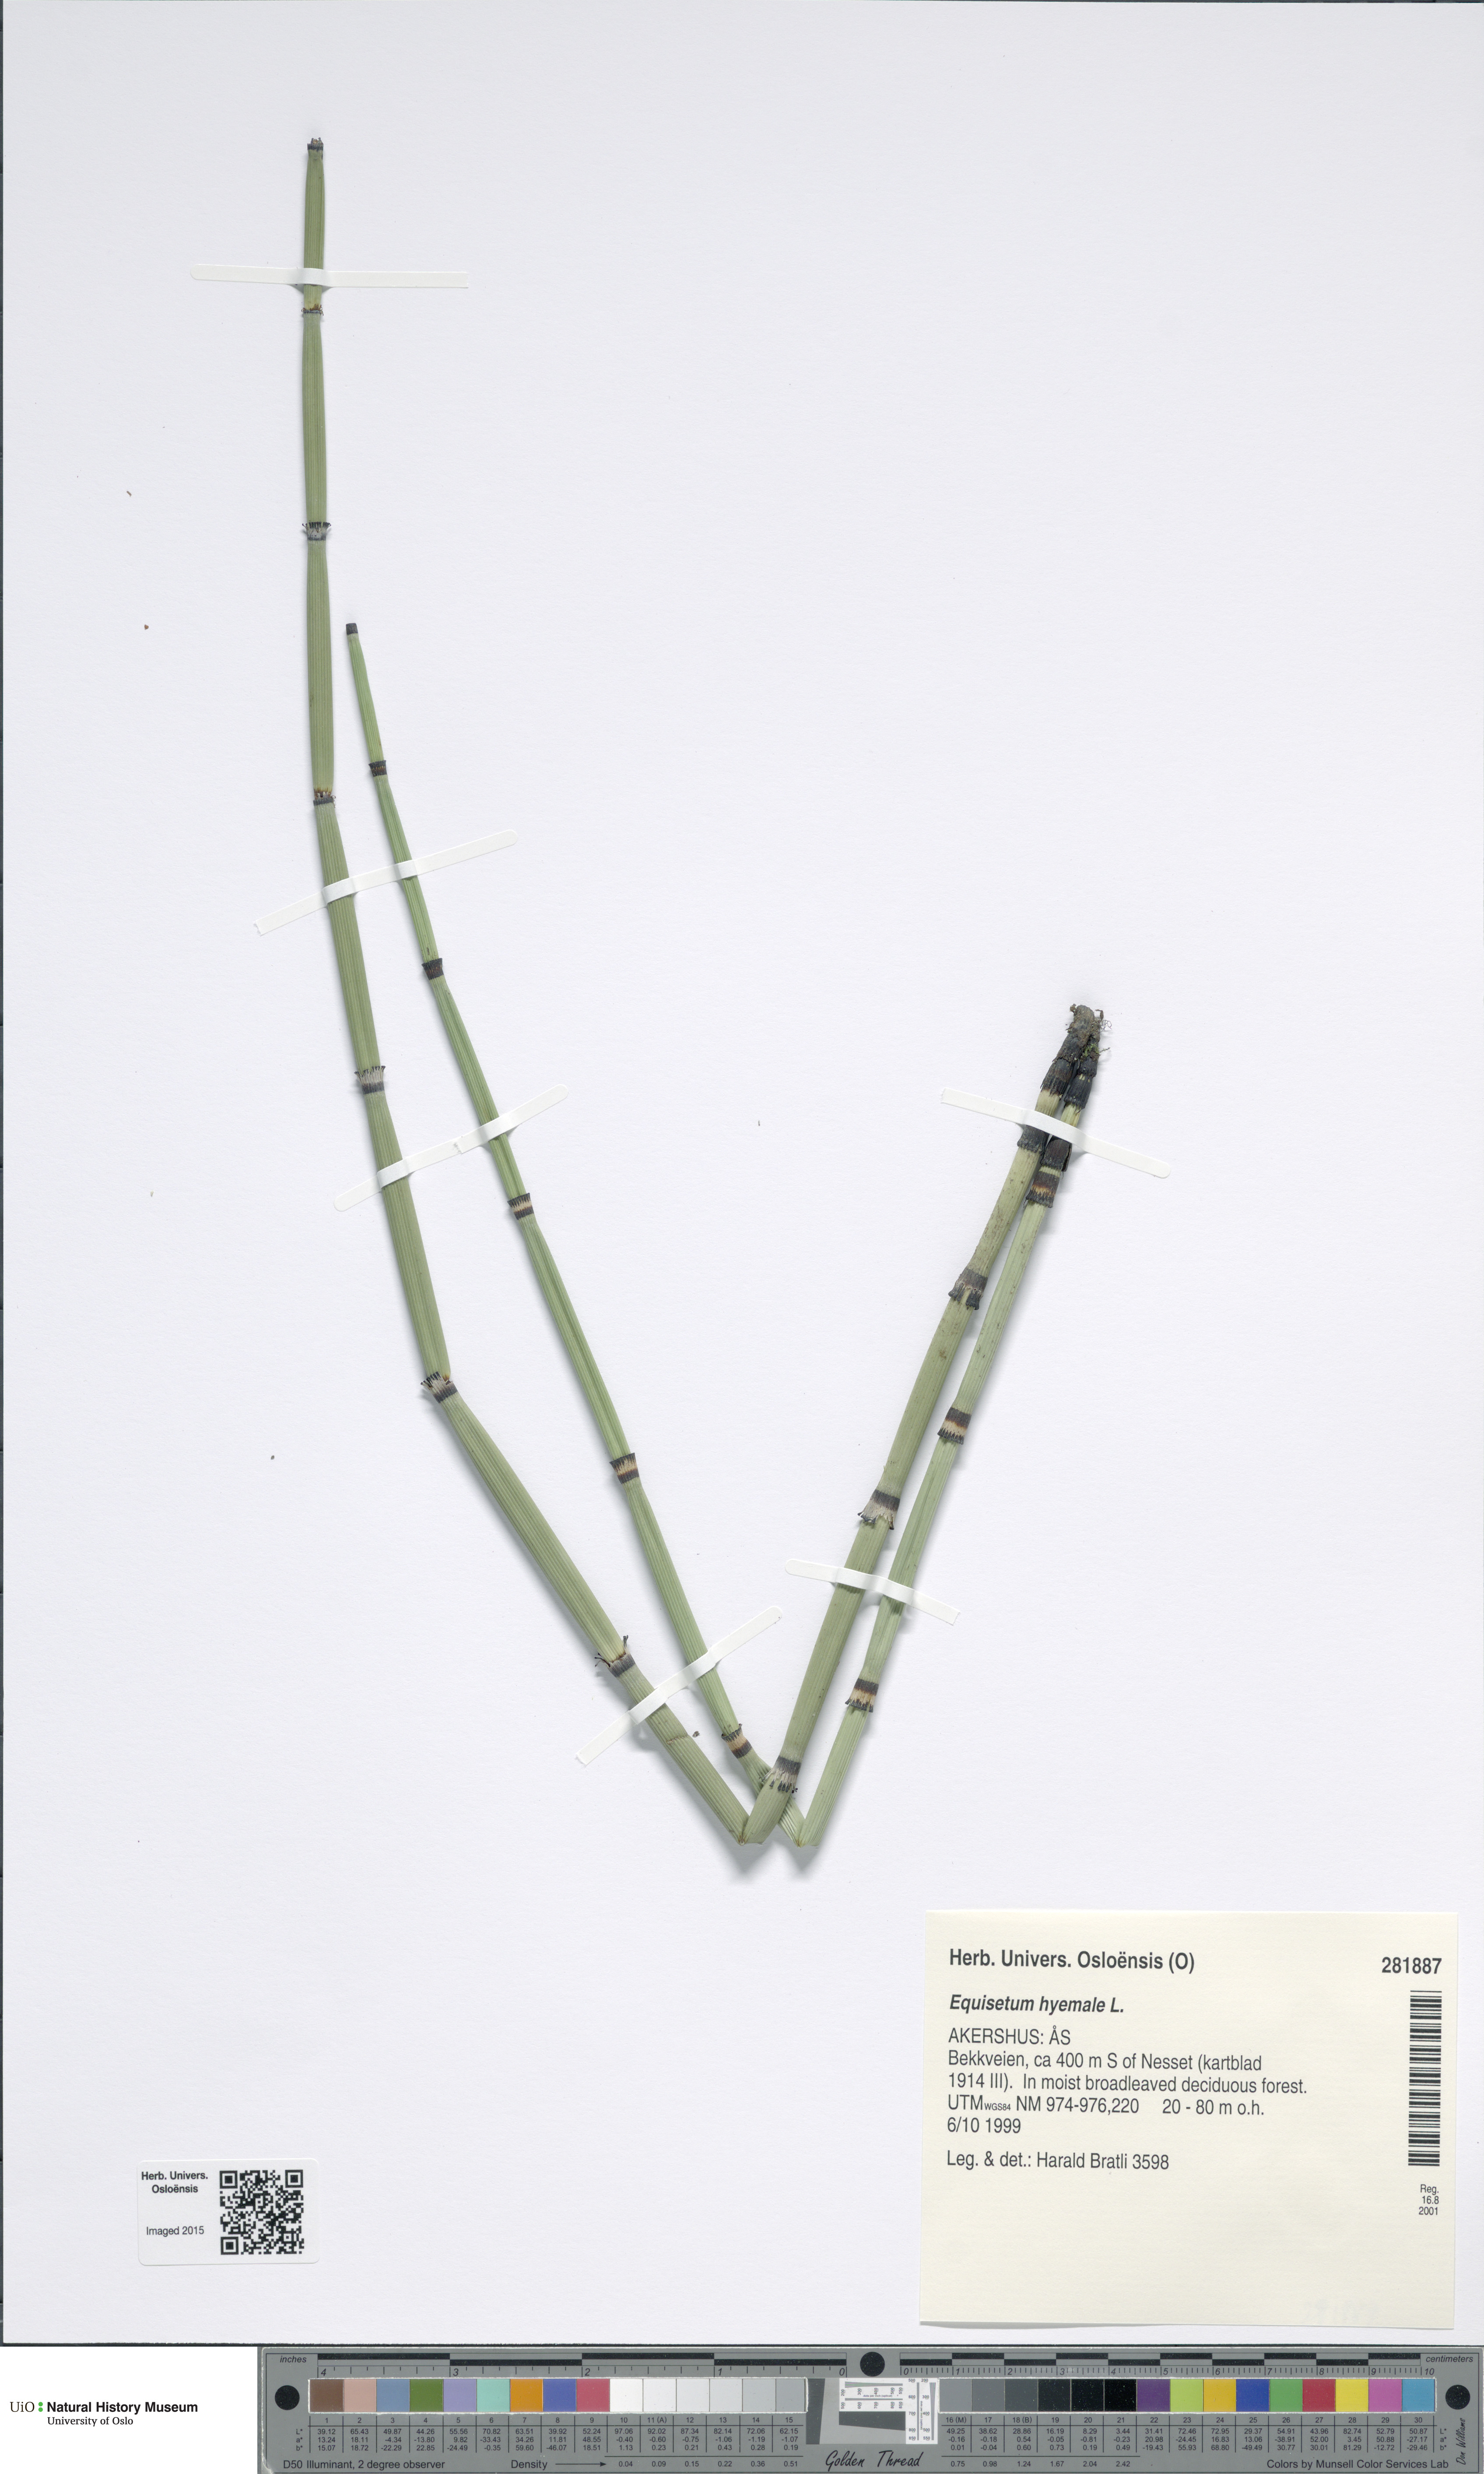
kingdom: Plantae
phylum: Tracheophyta
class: Polypodiopsida
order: Equisetales
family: Equisetaceae
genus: Equisetum
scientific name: Equisetum hyemale
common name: Rough horsetail
